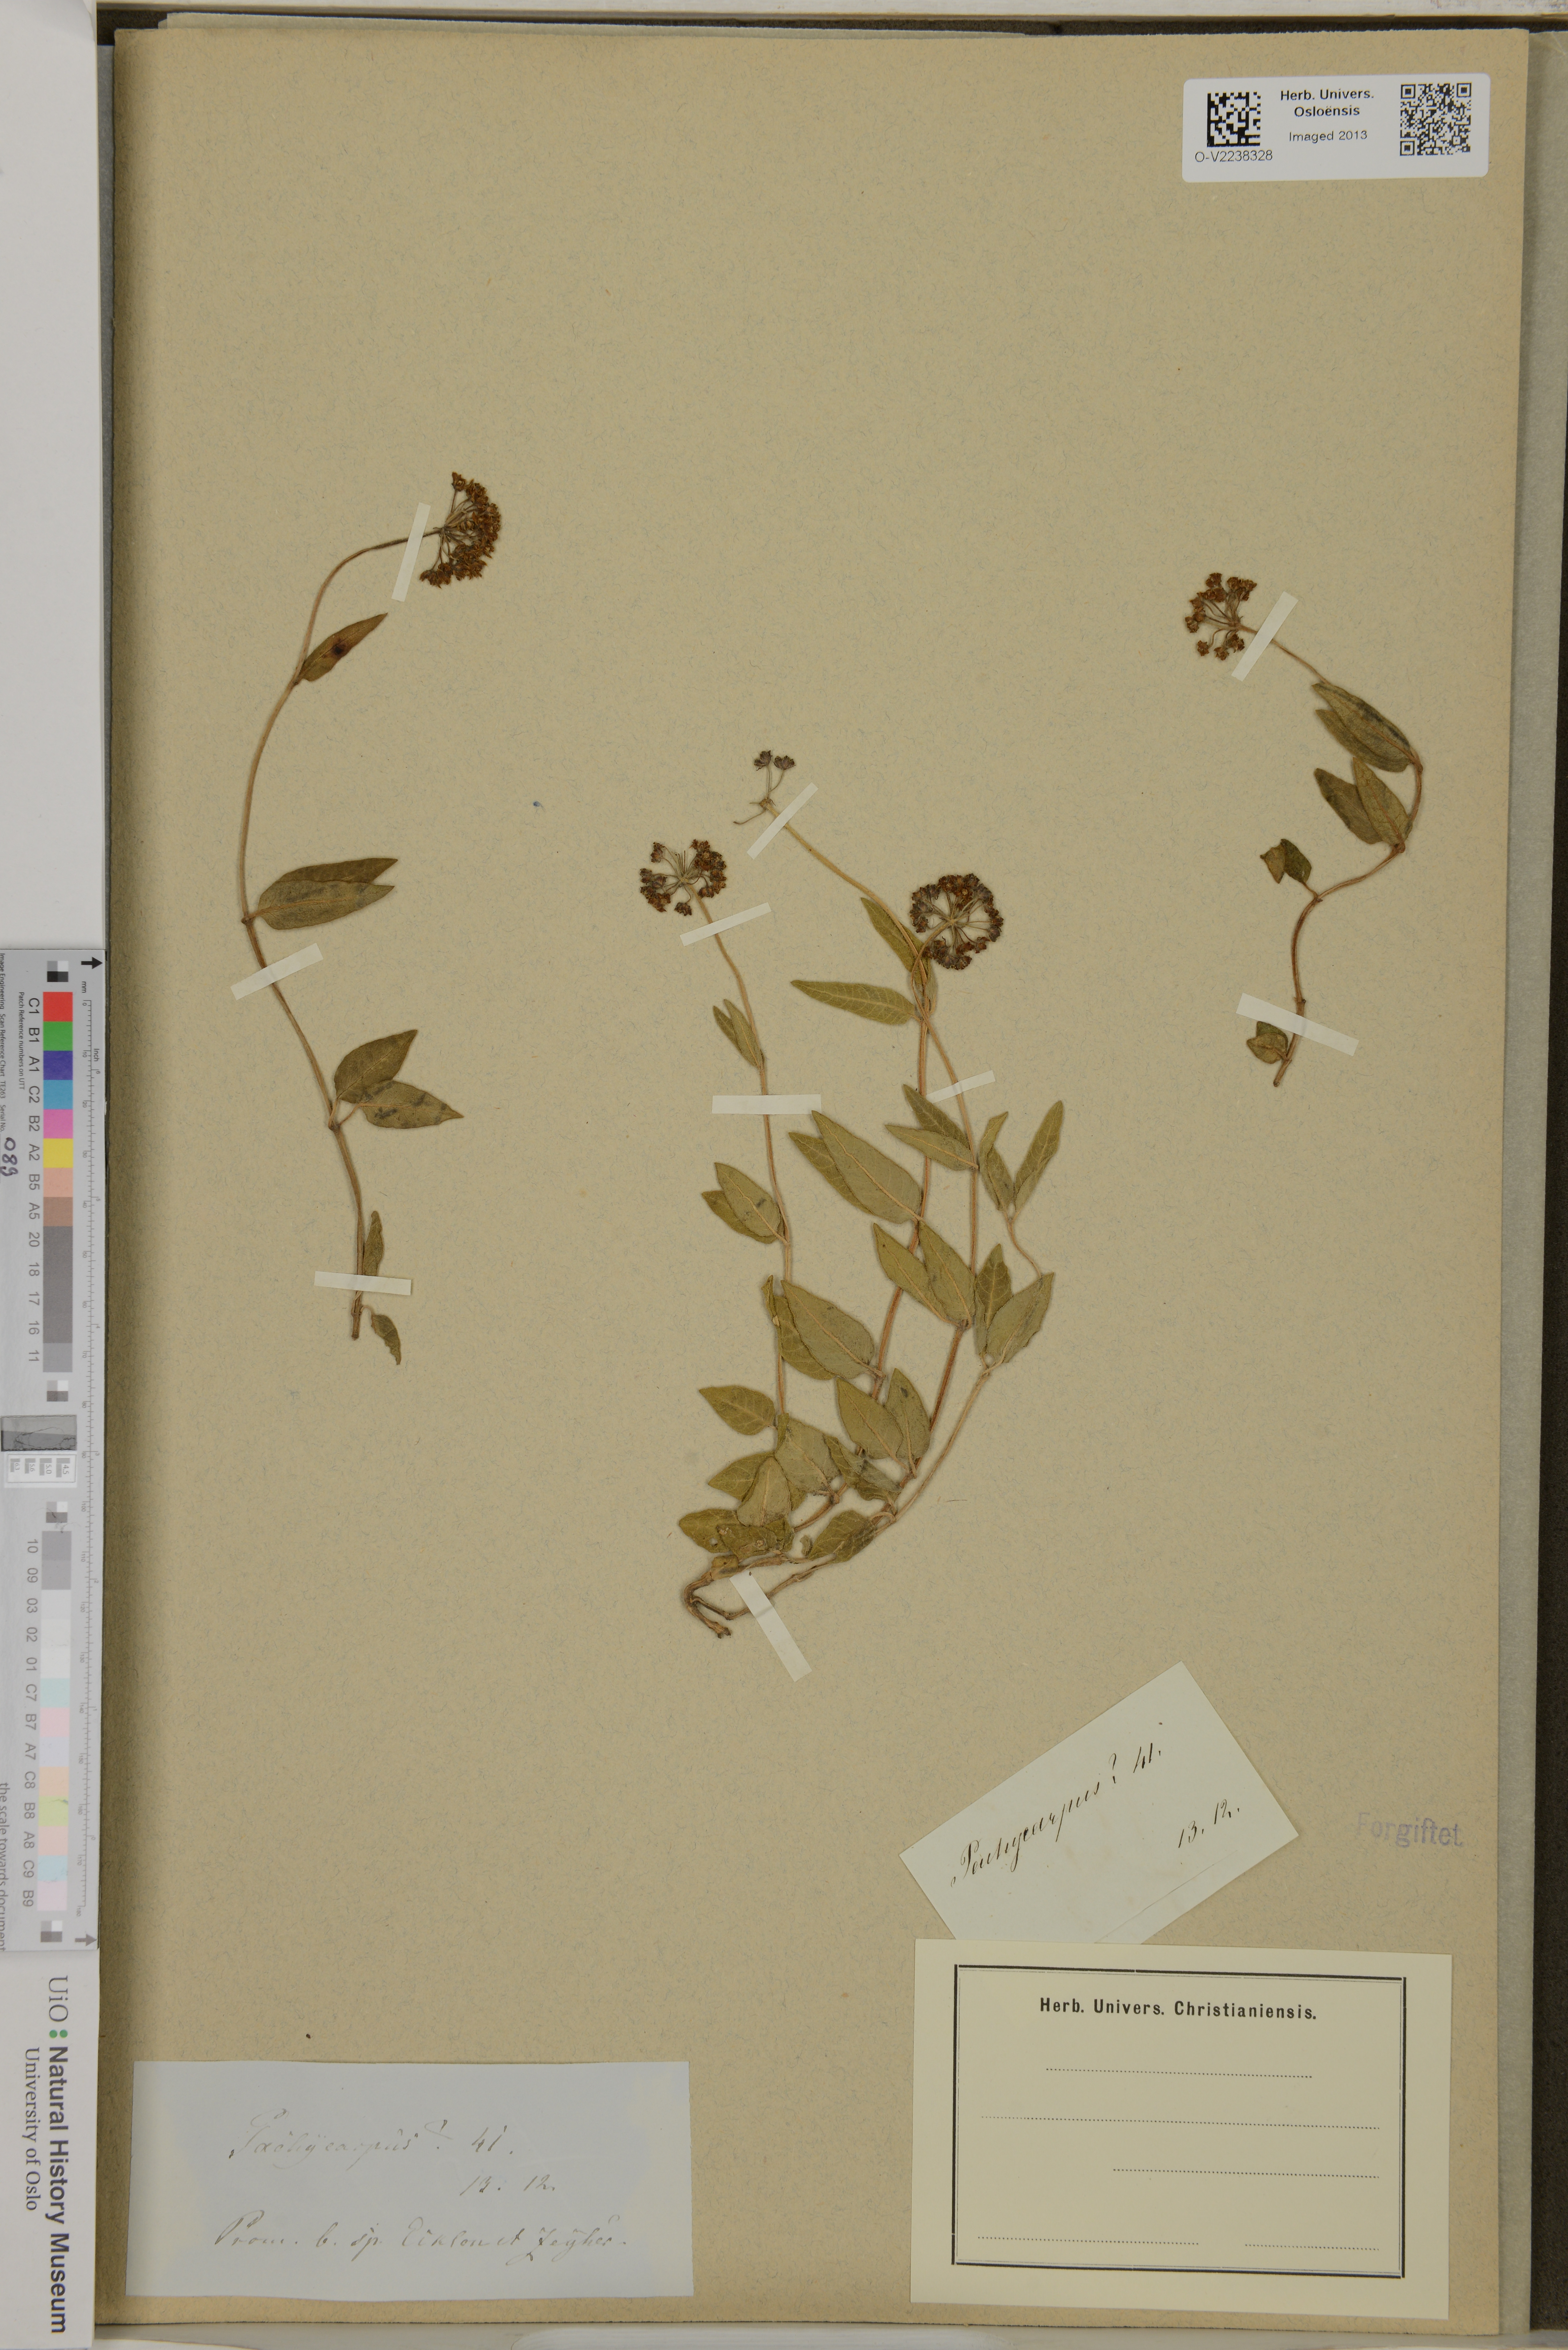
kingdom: Plantae
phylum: Tracheophyta
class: Magnoliopsida
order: Gentianales
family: Apocynaceae
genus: Pachycarpus
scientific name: Pachycarpus
